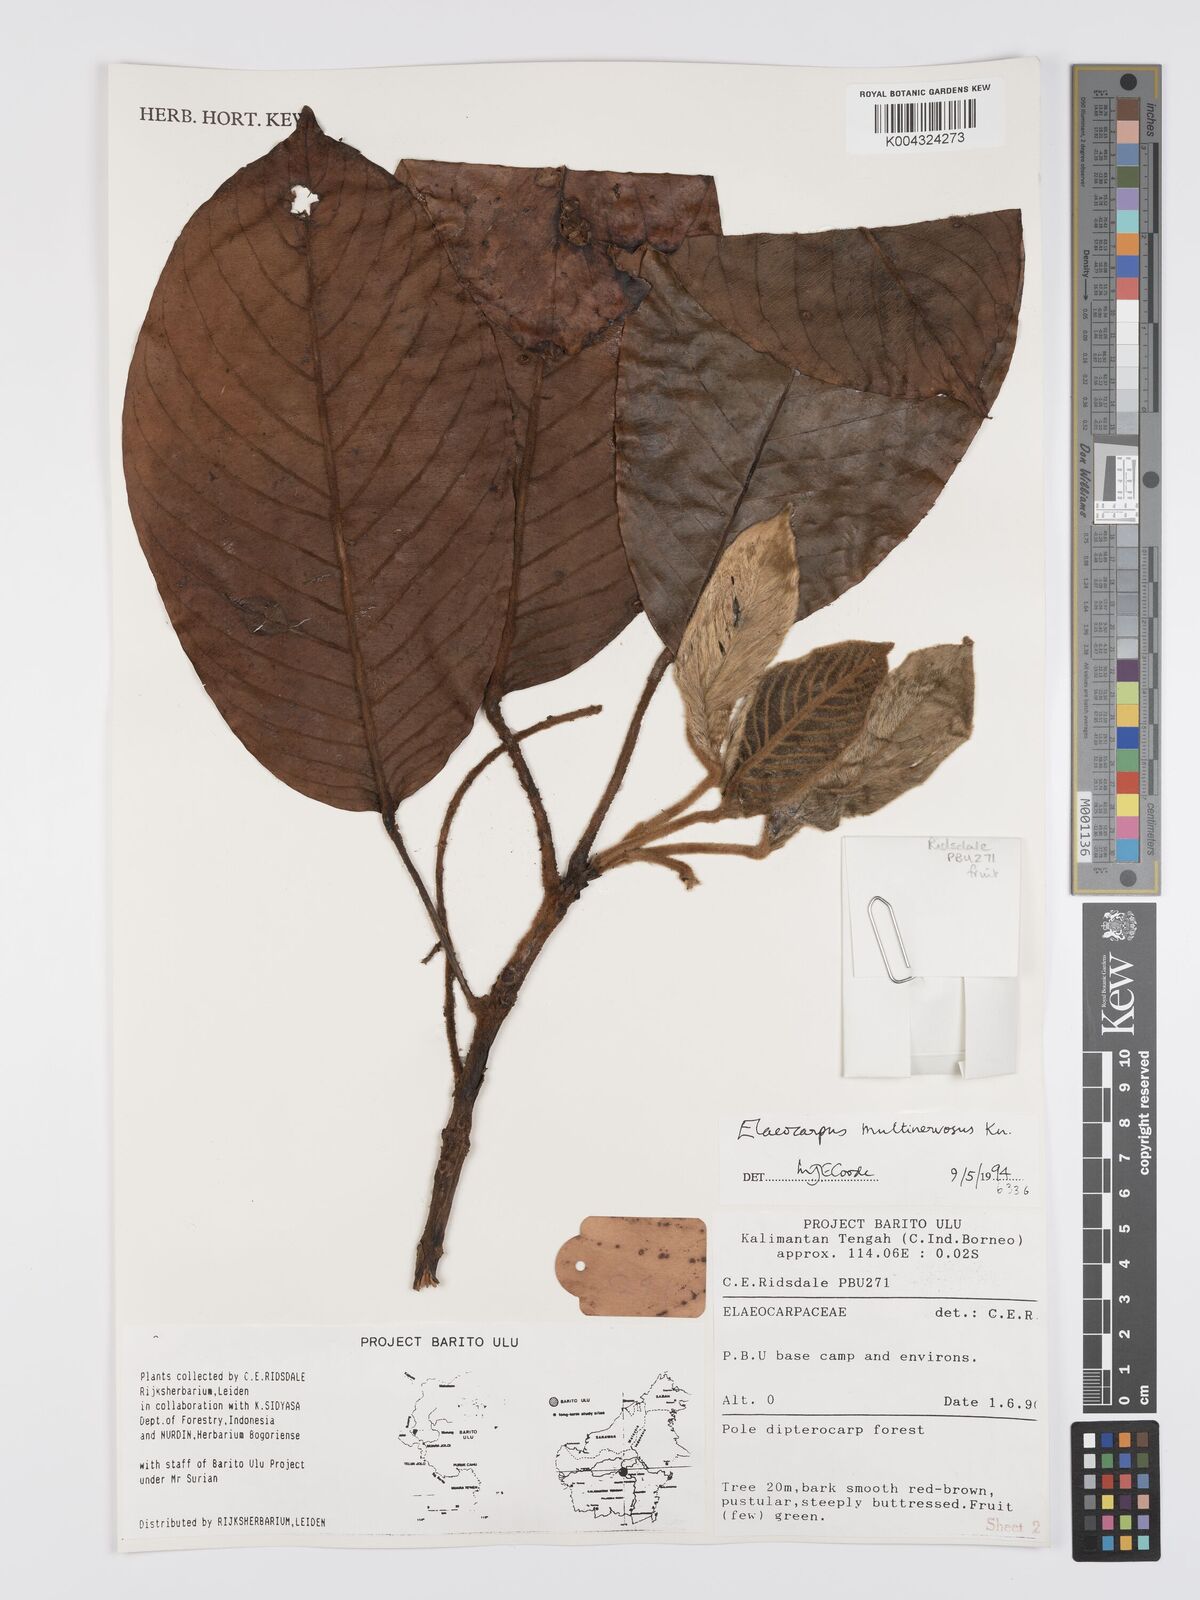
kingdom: Plantae
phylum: Tracheophyta
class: Magnoliopsida
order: Oxalidales
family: Elaeocarpaceae
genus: Elaeocarpus
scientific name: Elaeocarpus multinervosus
